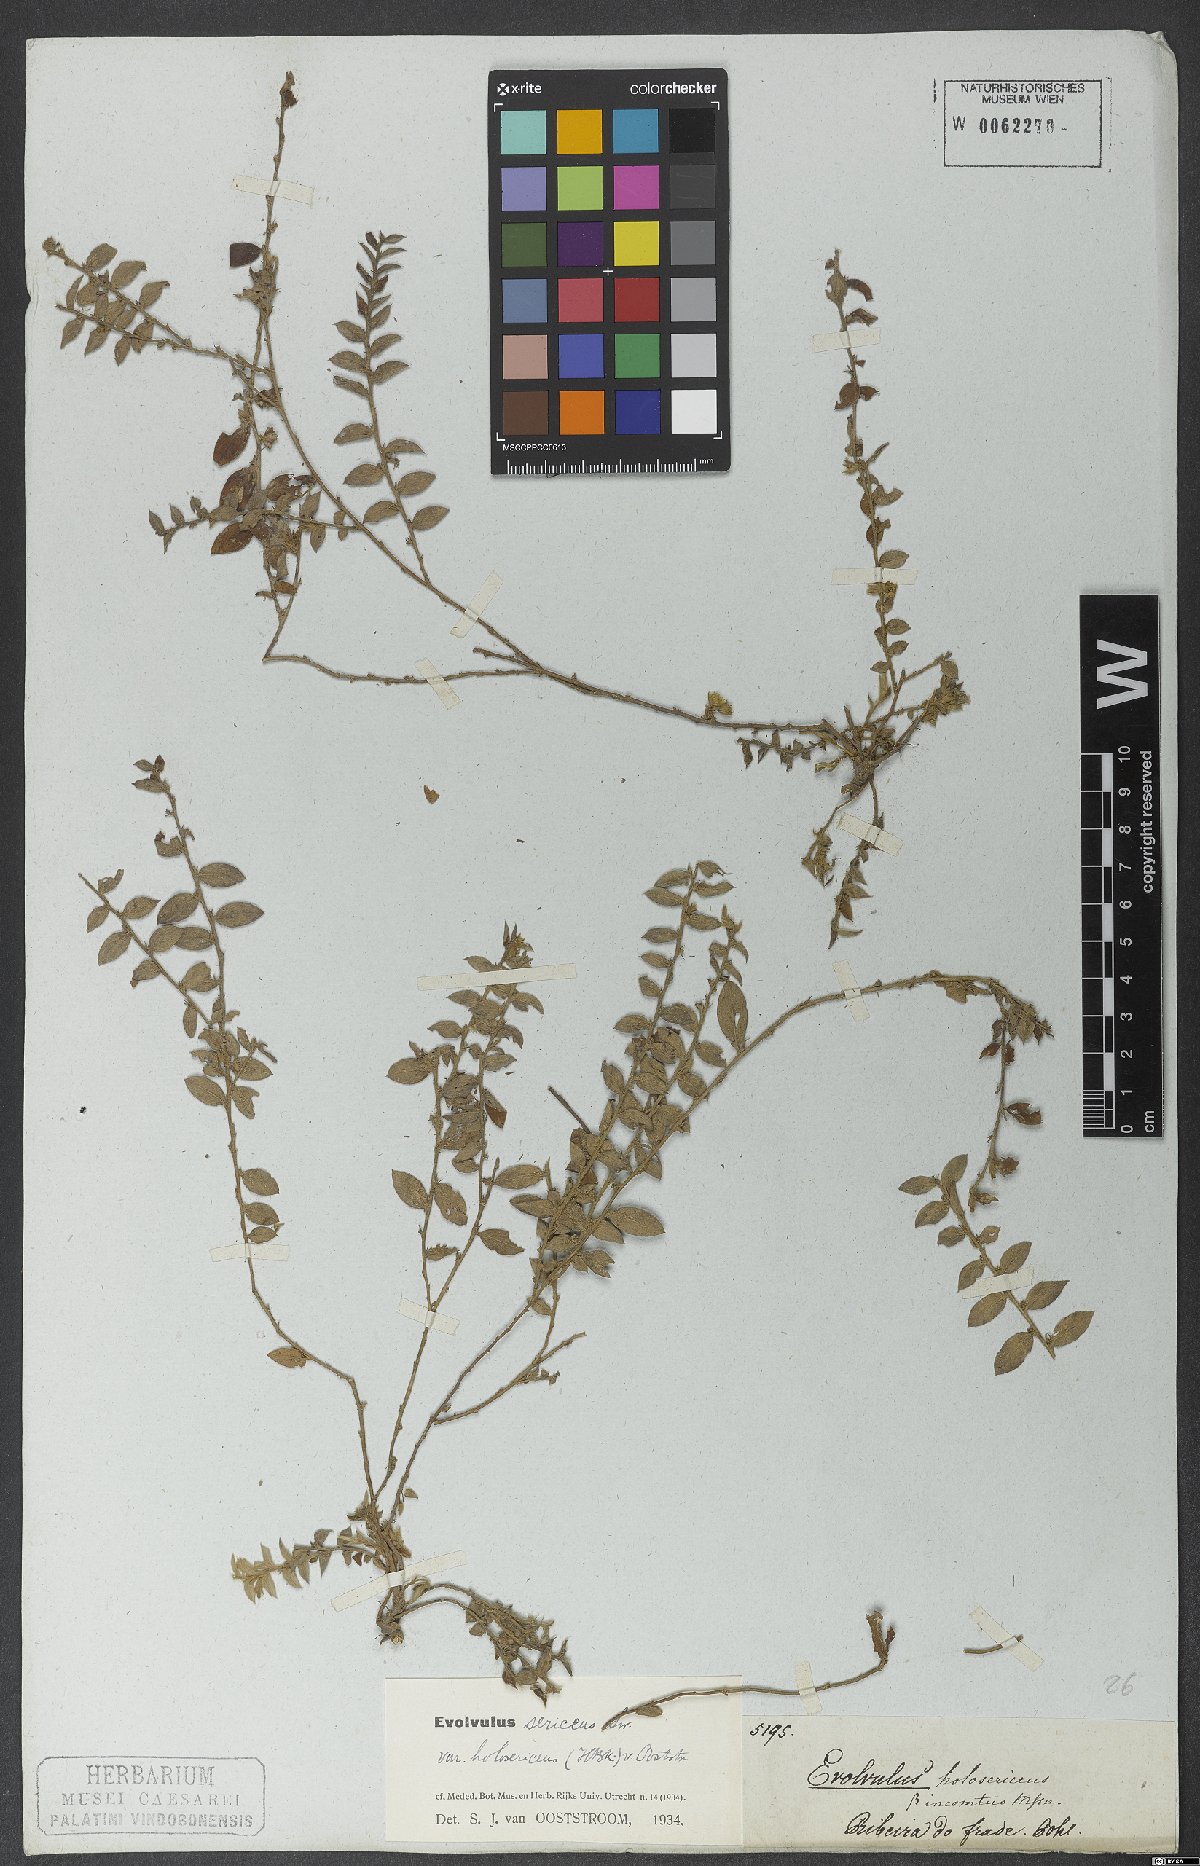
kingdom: Plantae
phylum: Tracheophyta
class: Magnoliopsida
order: Solanales
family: Convolvulaceae
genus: Evolvulus
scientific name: Evolvulus sericeus
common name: Blue dots
